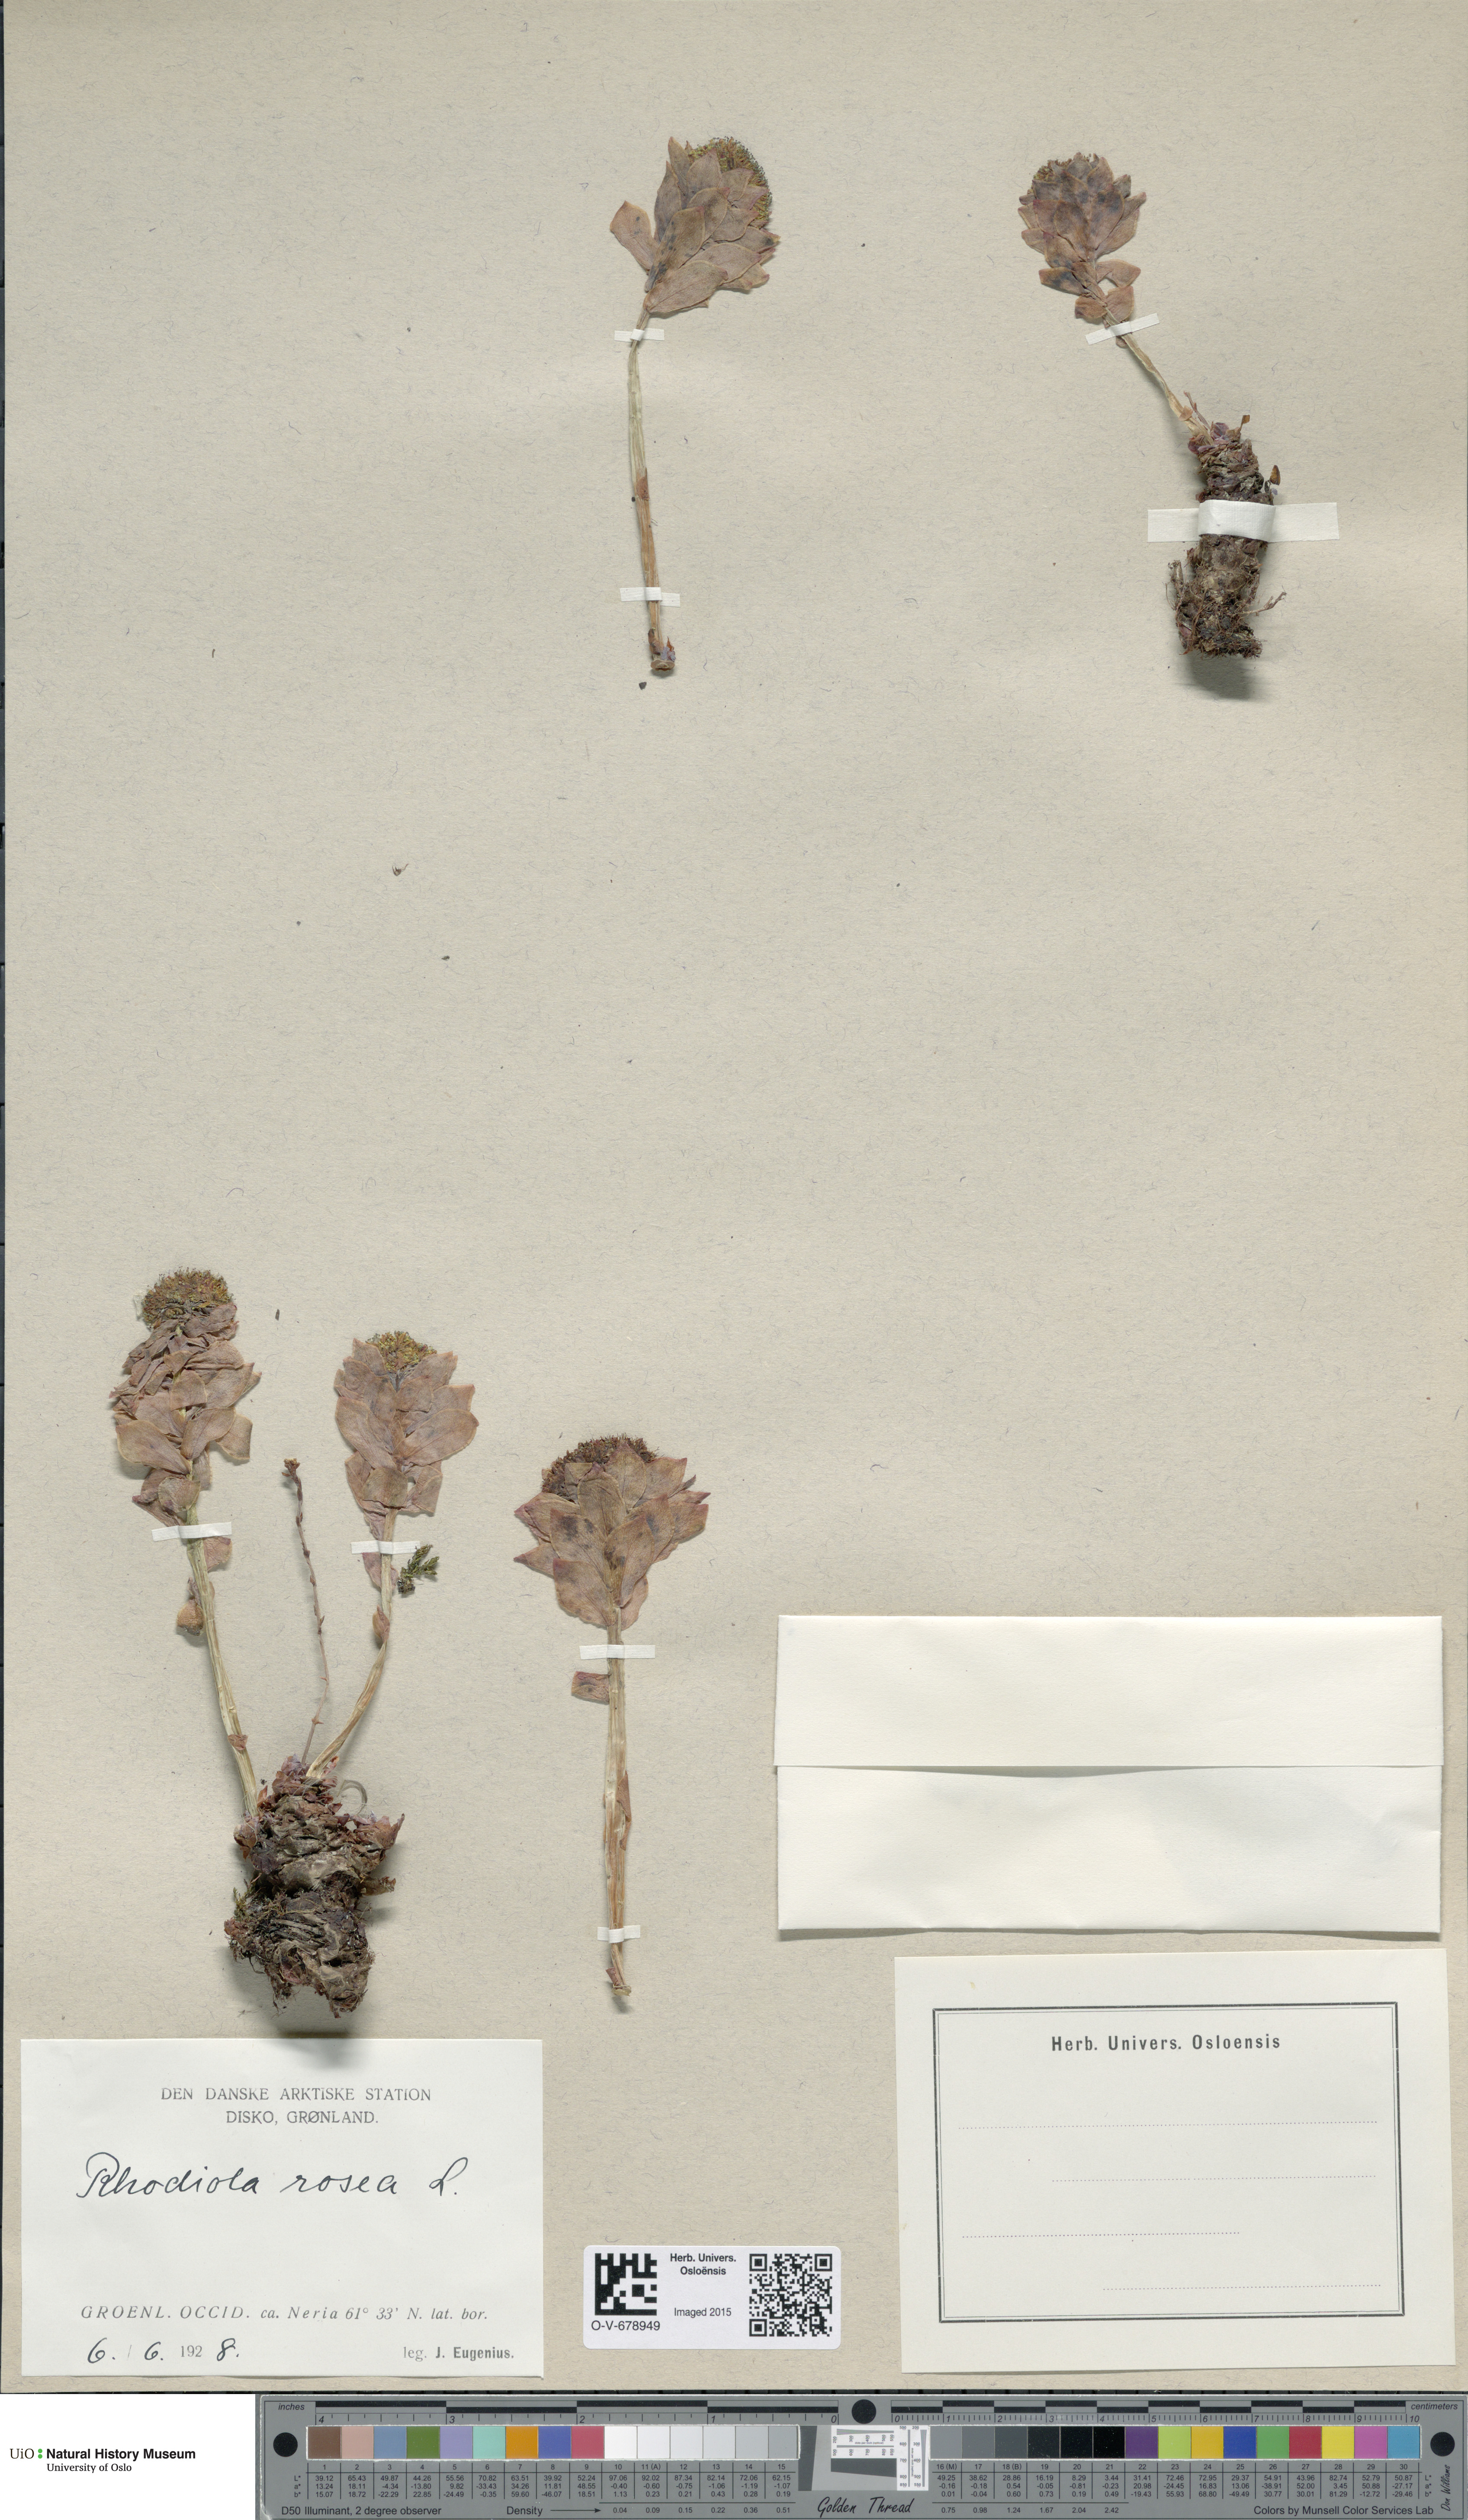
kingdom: Plantae
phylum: Tracheophyta
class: Magnoliopsida
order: Saxifragales
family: Crassulaceae
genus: Rhodiola
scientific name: Rhodiola rosea
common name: Roseroot
